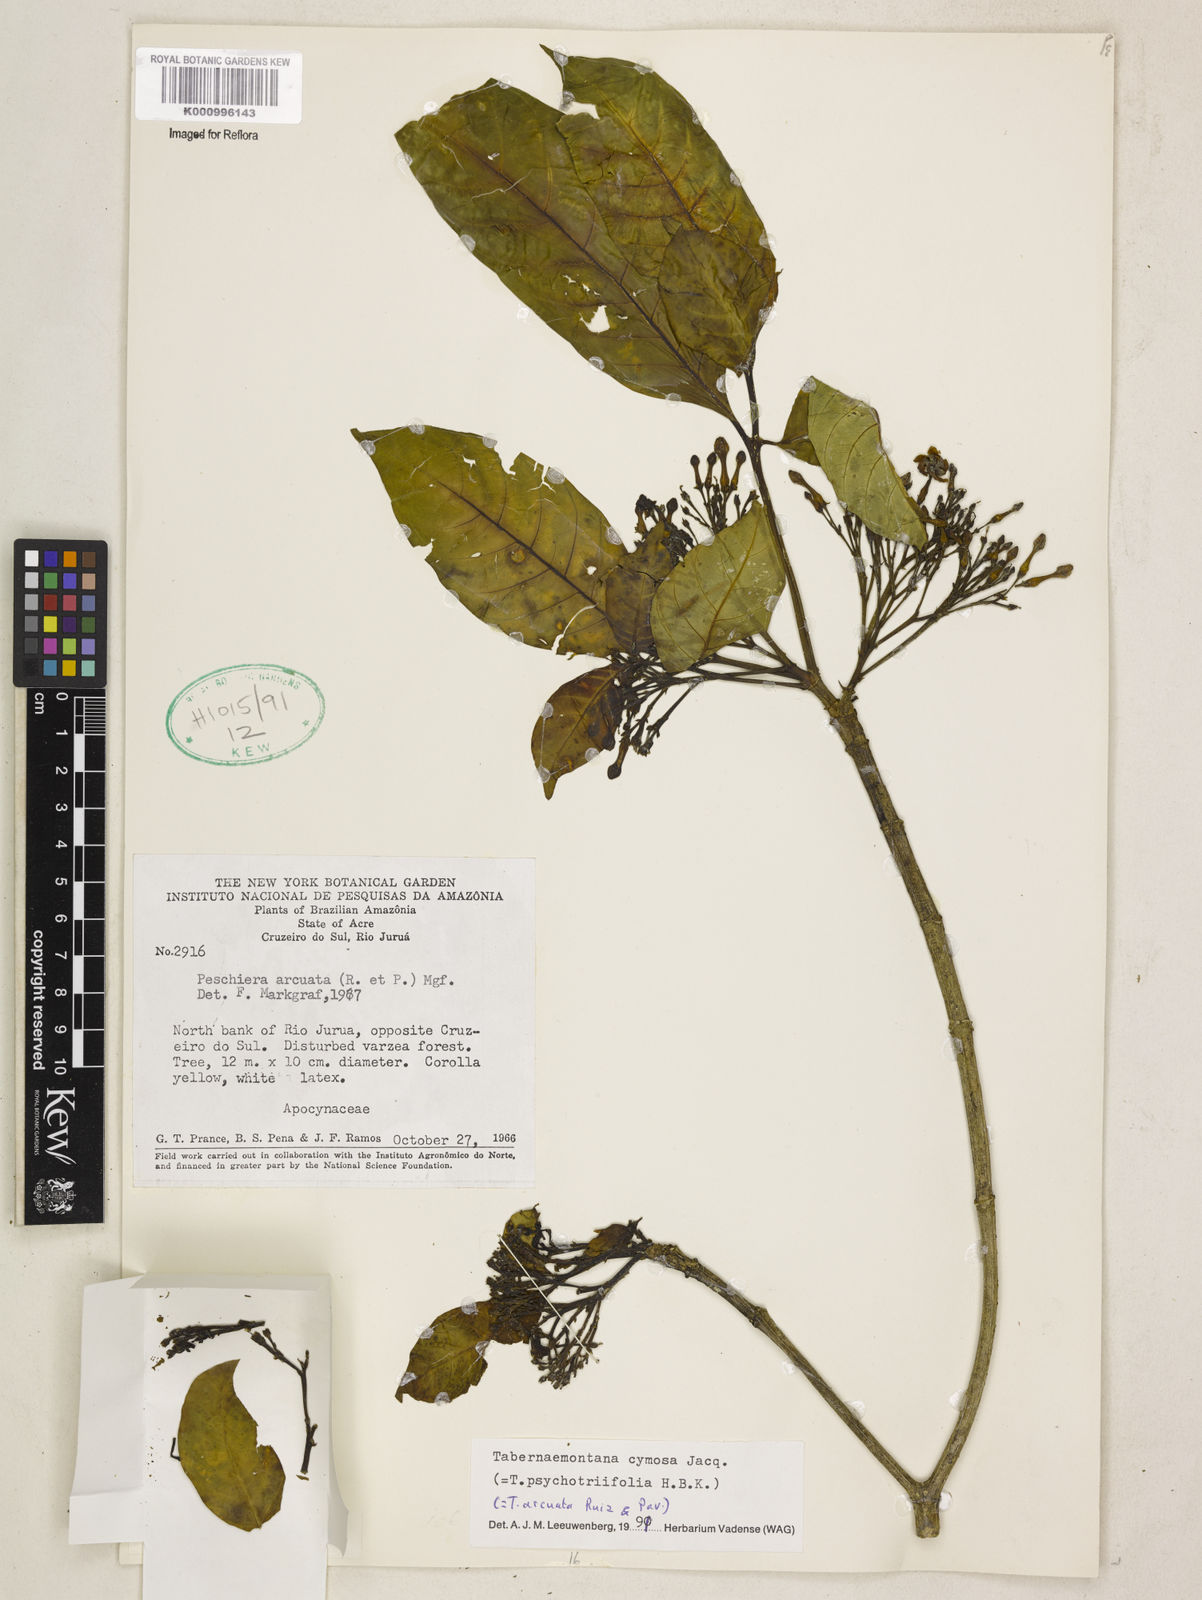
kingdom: Plantae
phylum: Tracheophyta
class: Magnoliopsida
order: Gentianales
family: Apocynaceae
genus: Tabernaemontana
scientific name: Tabernaemontana cymosa
